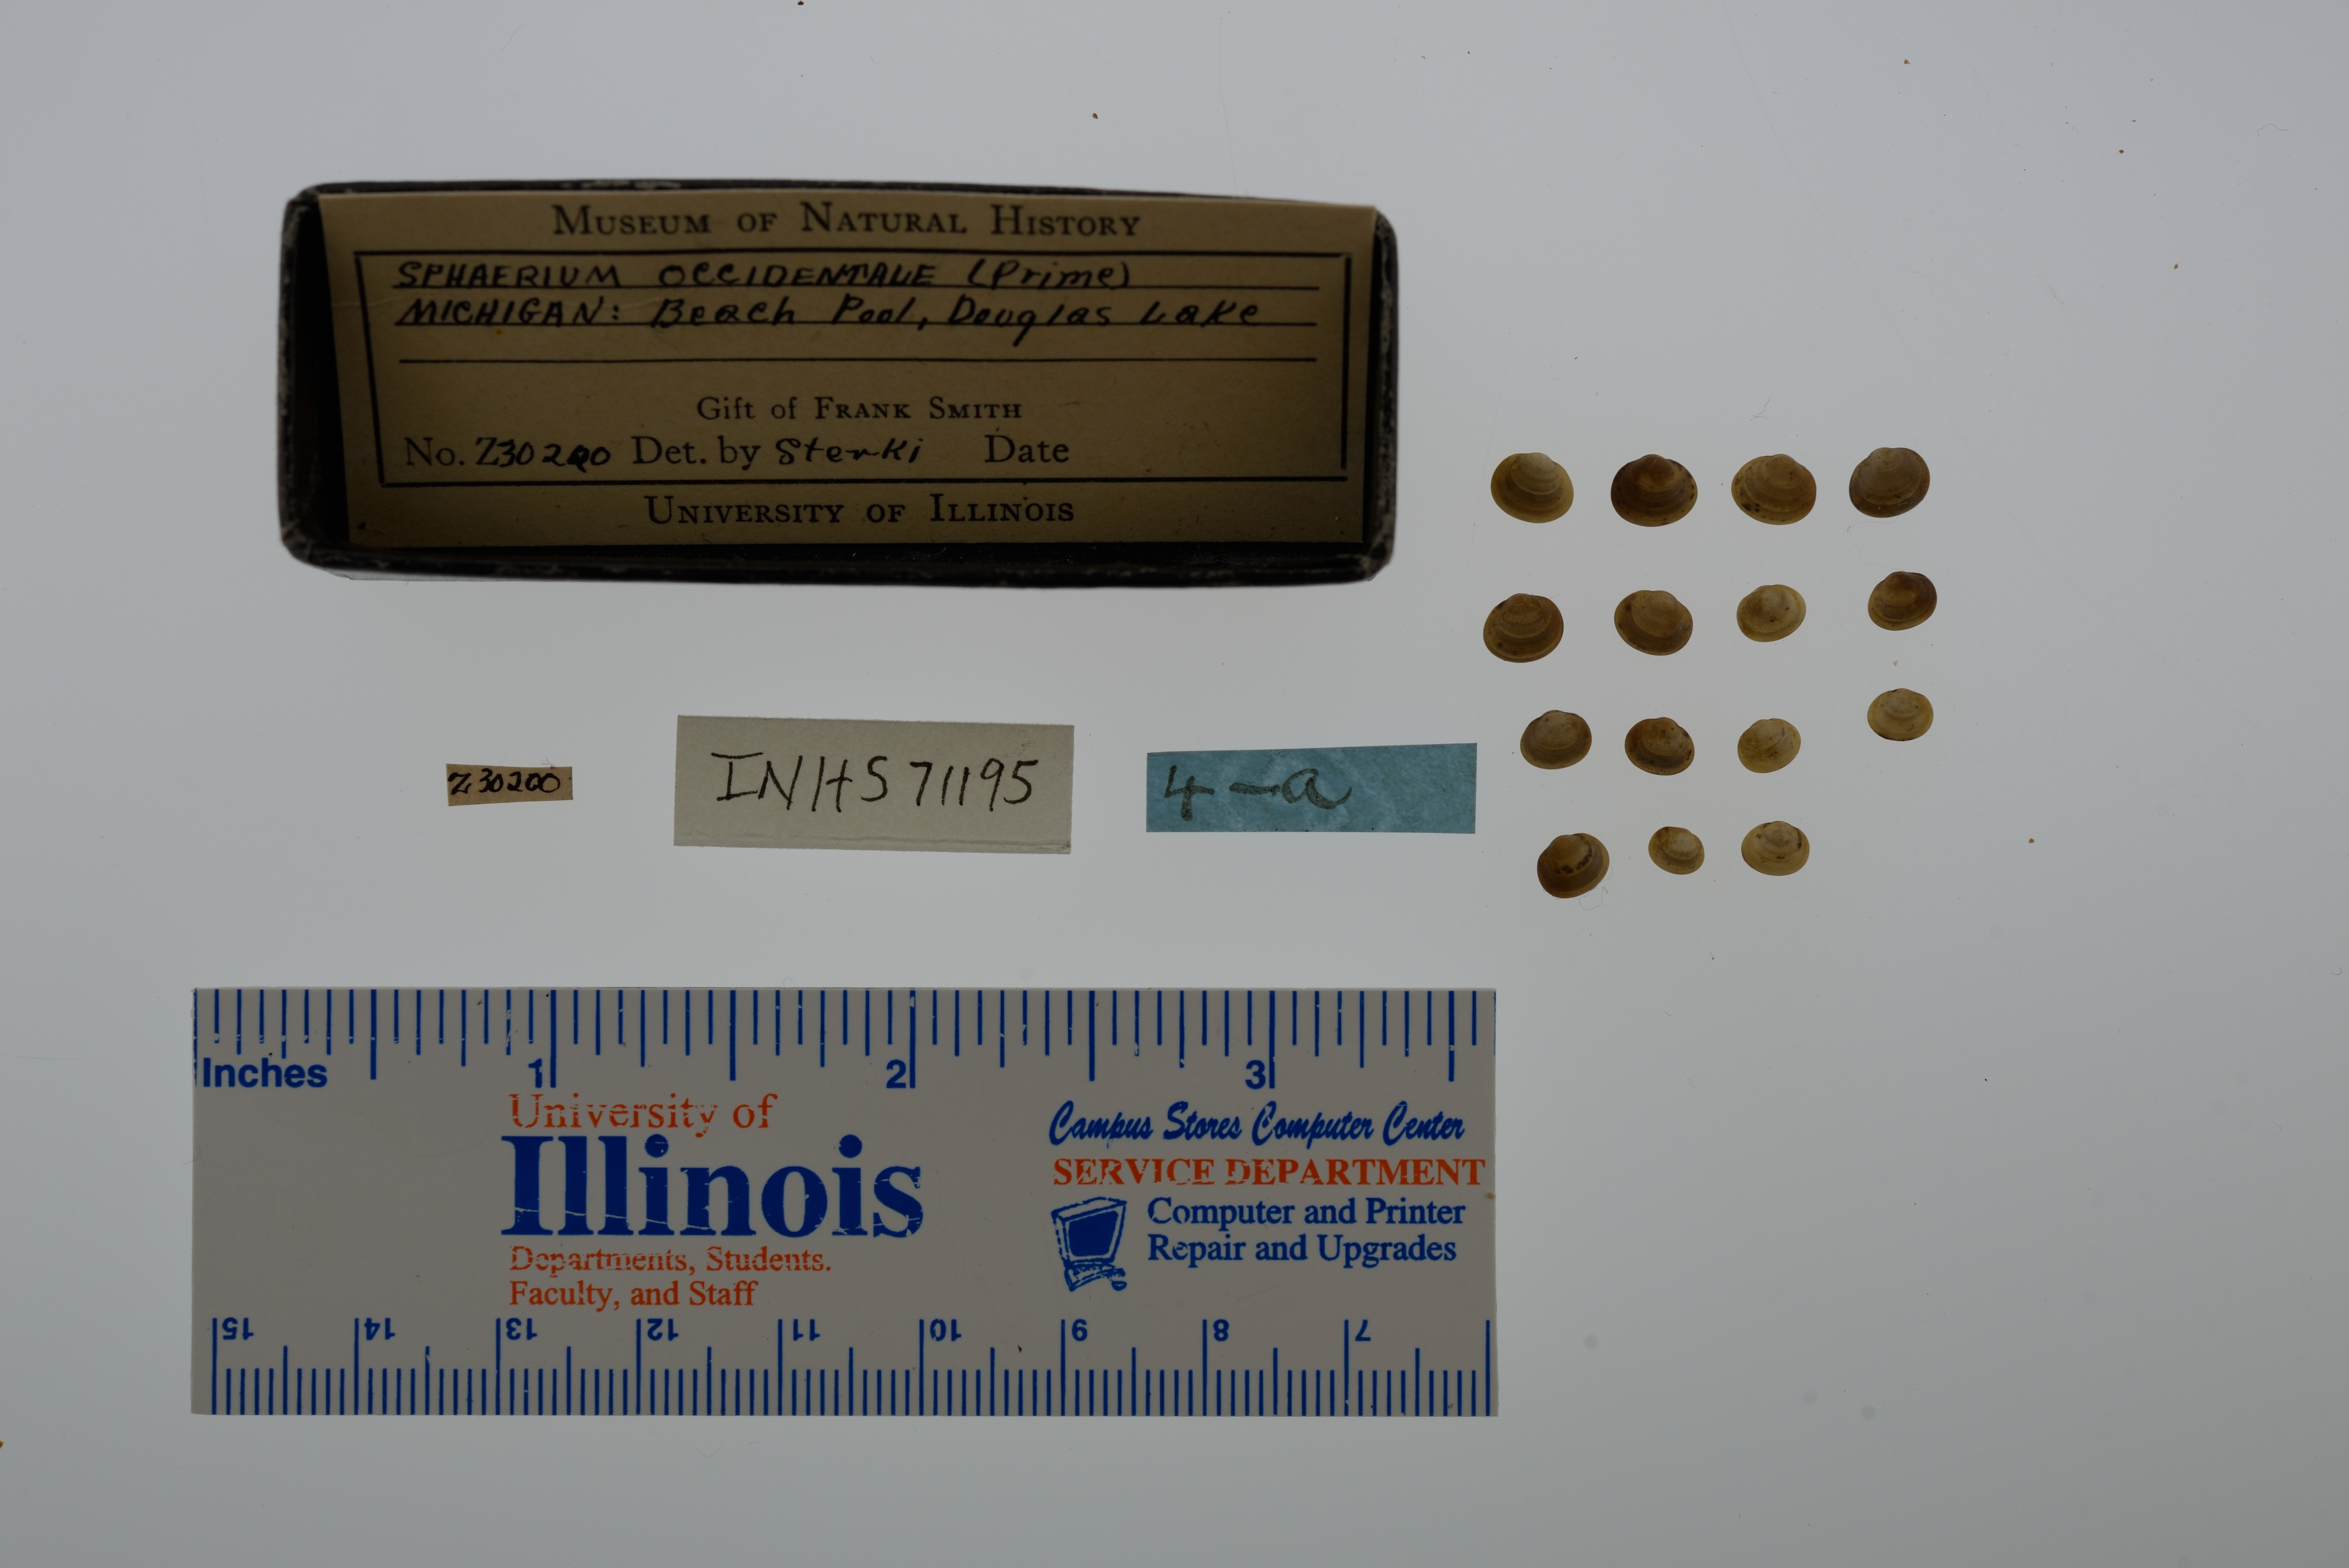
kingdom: Animalia
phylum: Mollusca
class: Bivalvia
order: Sphaeriida
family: Sphaeriidae
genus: Sphaerium
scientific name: Sphaerium occidentale
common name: Herrington fingernailclam
